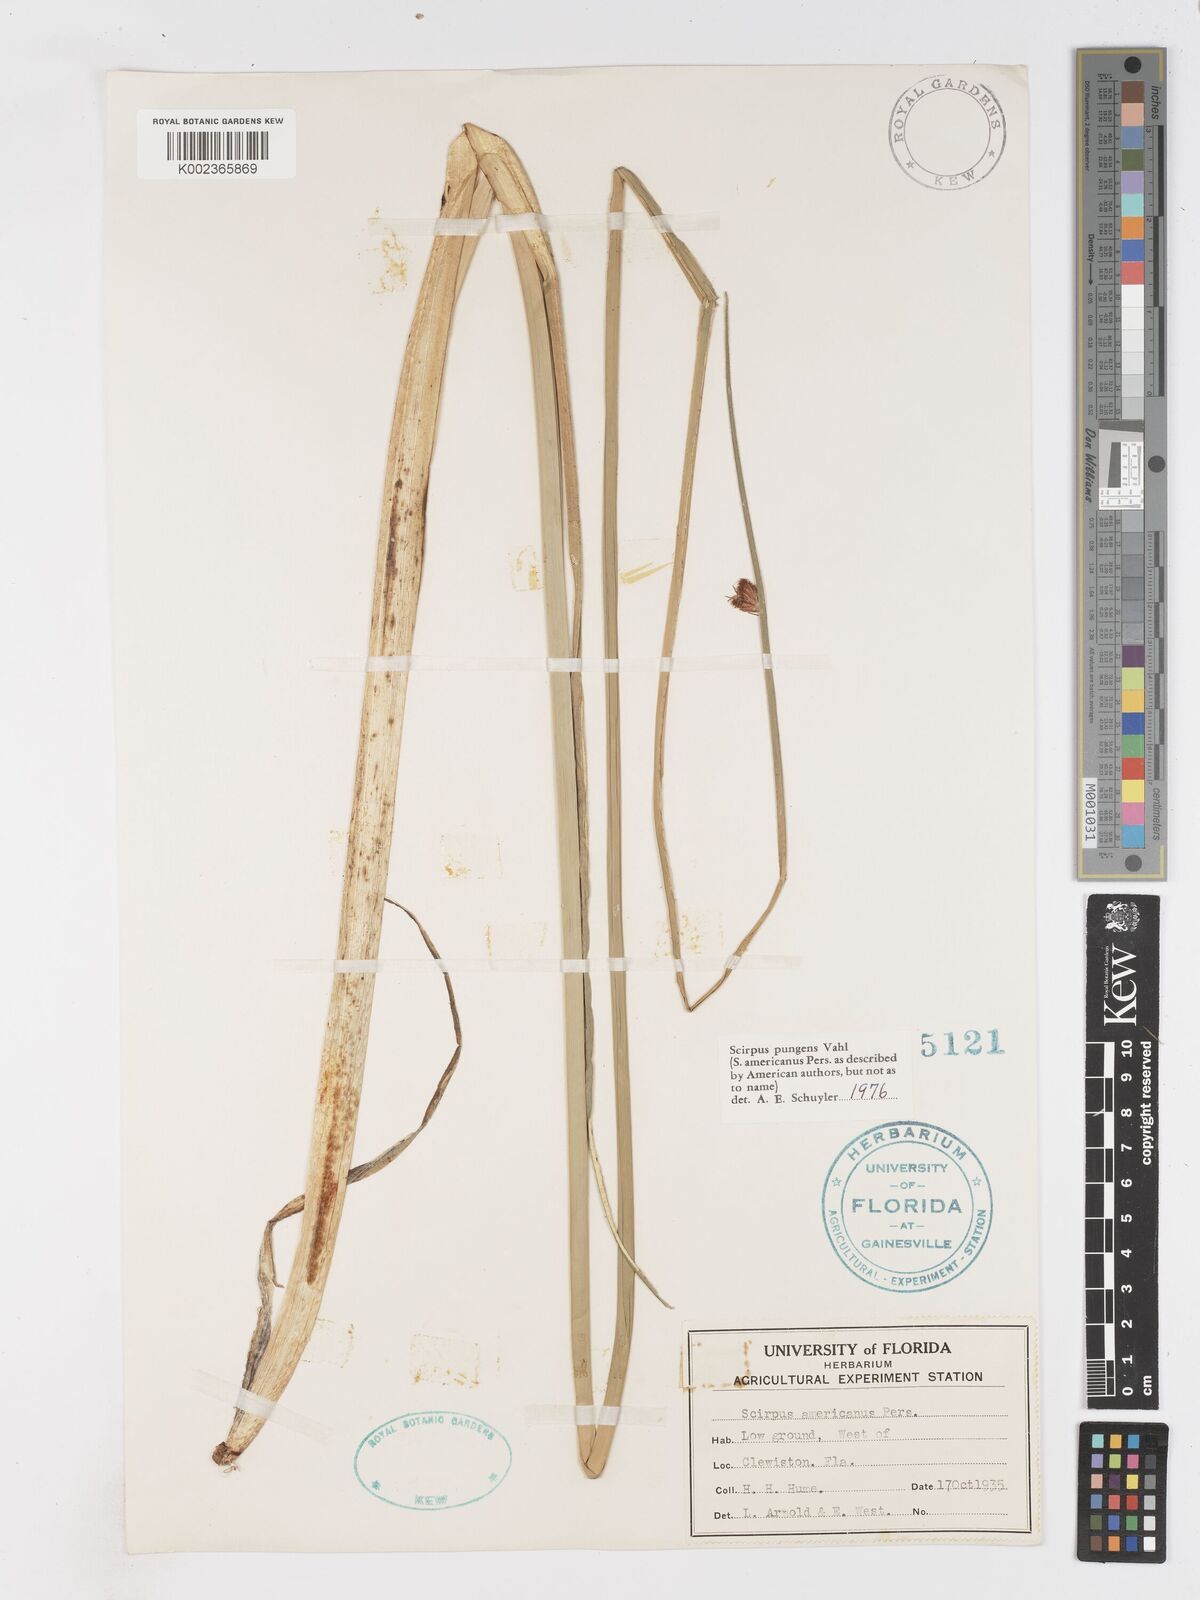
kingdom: Plantae
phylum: Tracheophyta
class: Liliopsida
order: Poales
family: Cyperaceae
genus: Schoenoplectus
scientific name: Schoenoplectus pungens
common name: Sharp club-rush
